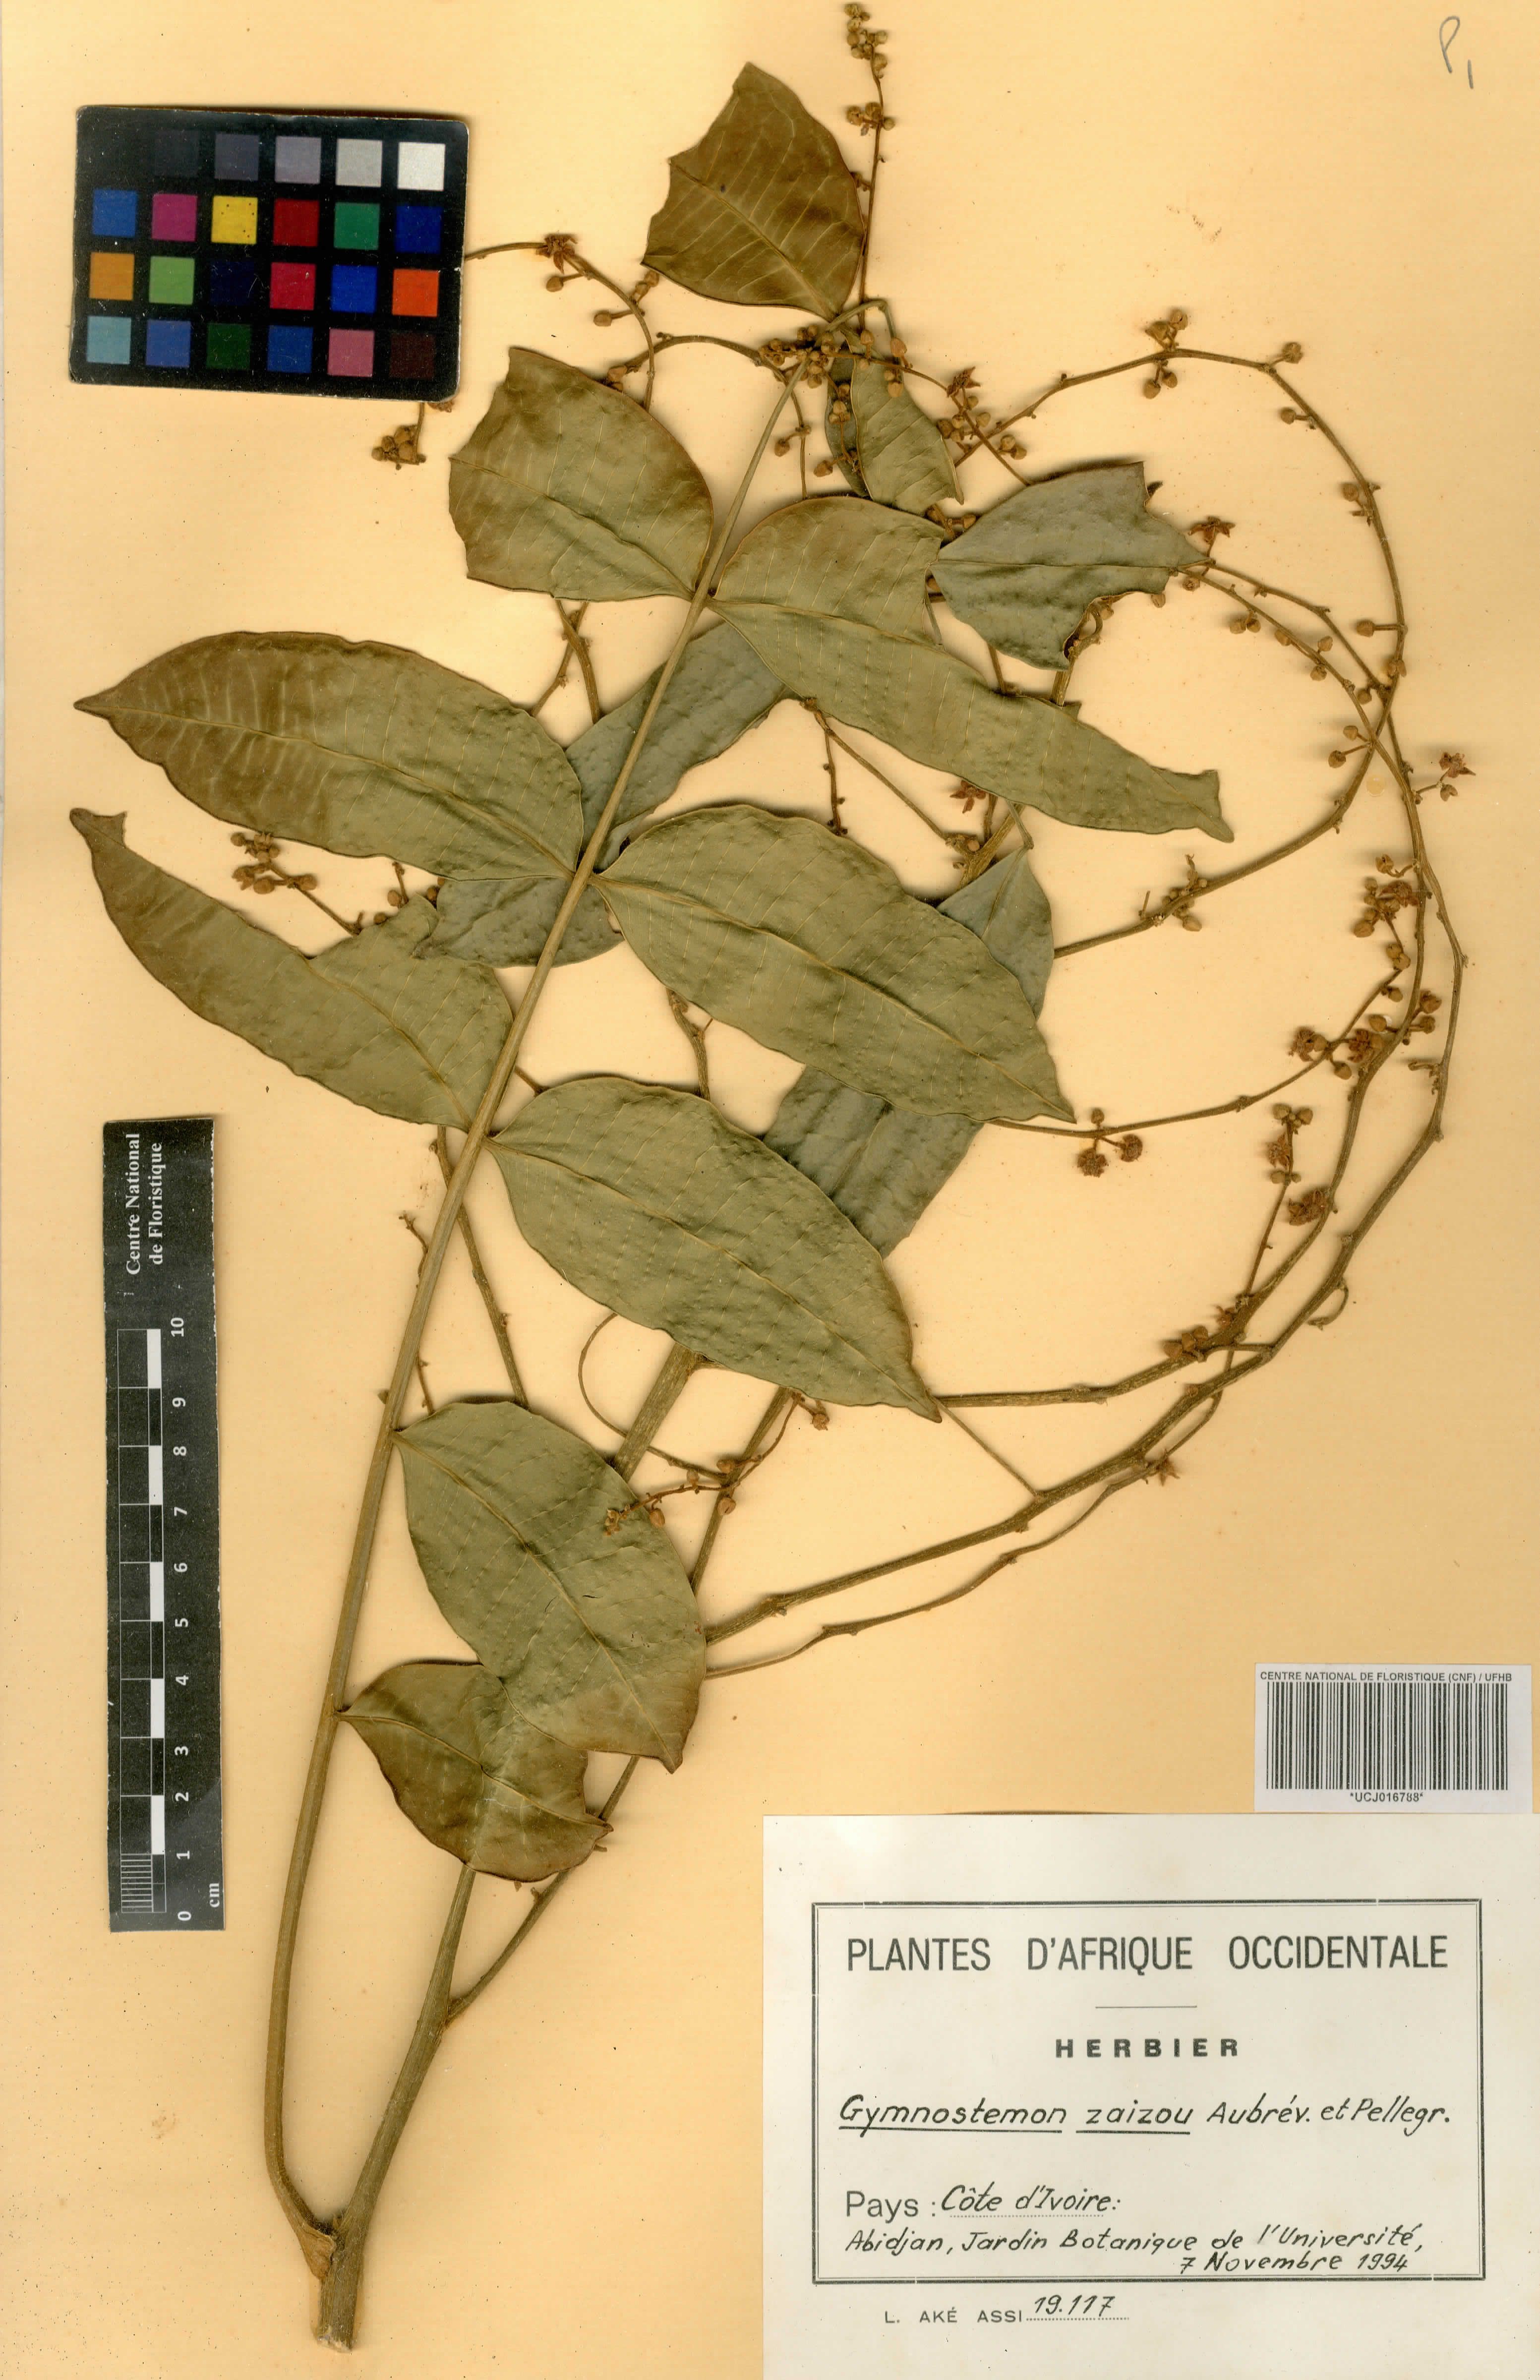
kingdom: Plantae
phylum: Tracheophyta
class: Magnoliopsida
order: Sapindales
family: Simaroubaceae
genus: Gymnostemon
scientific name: Gymnostemon zaizou
